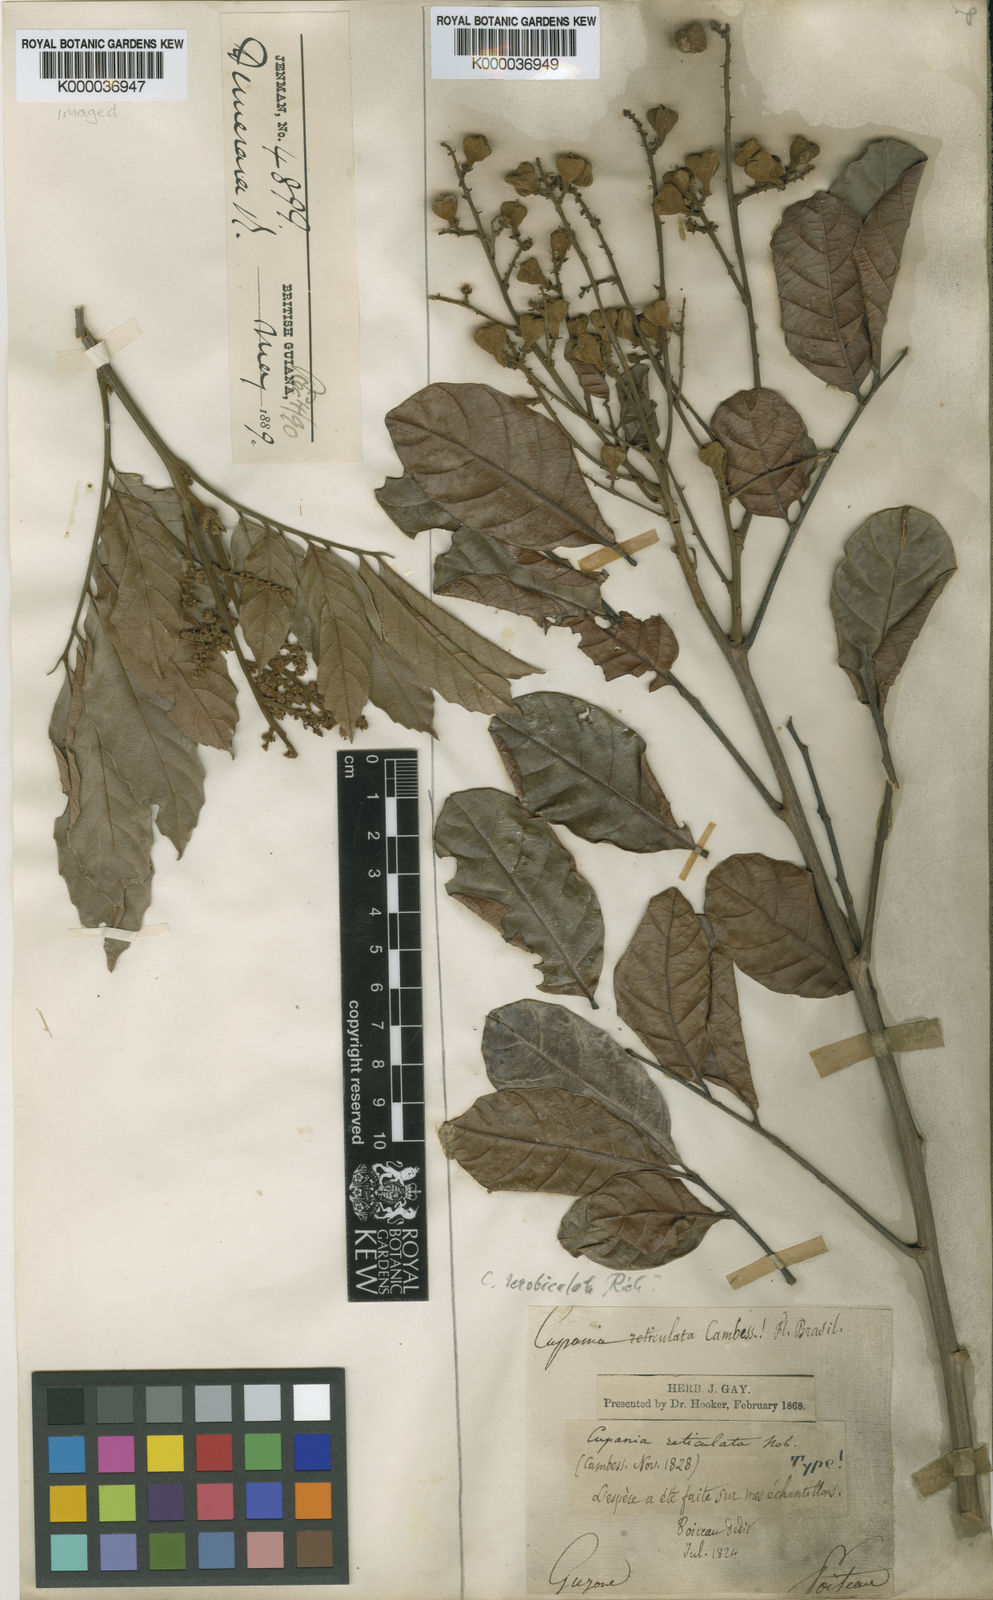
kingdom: Plantae
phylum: Tracheophyta
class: Magnoliopsida
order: Sapindales
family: Sapindaceae
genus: Cupania
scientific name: Cupania scrobiculata
